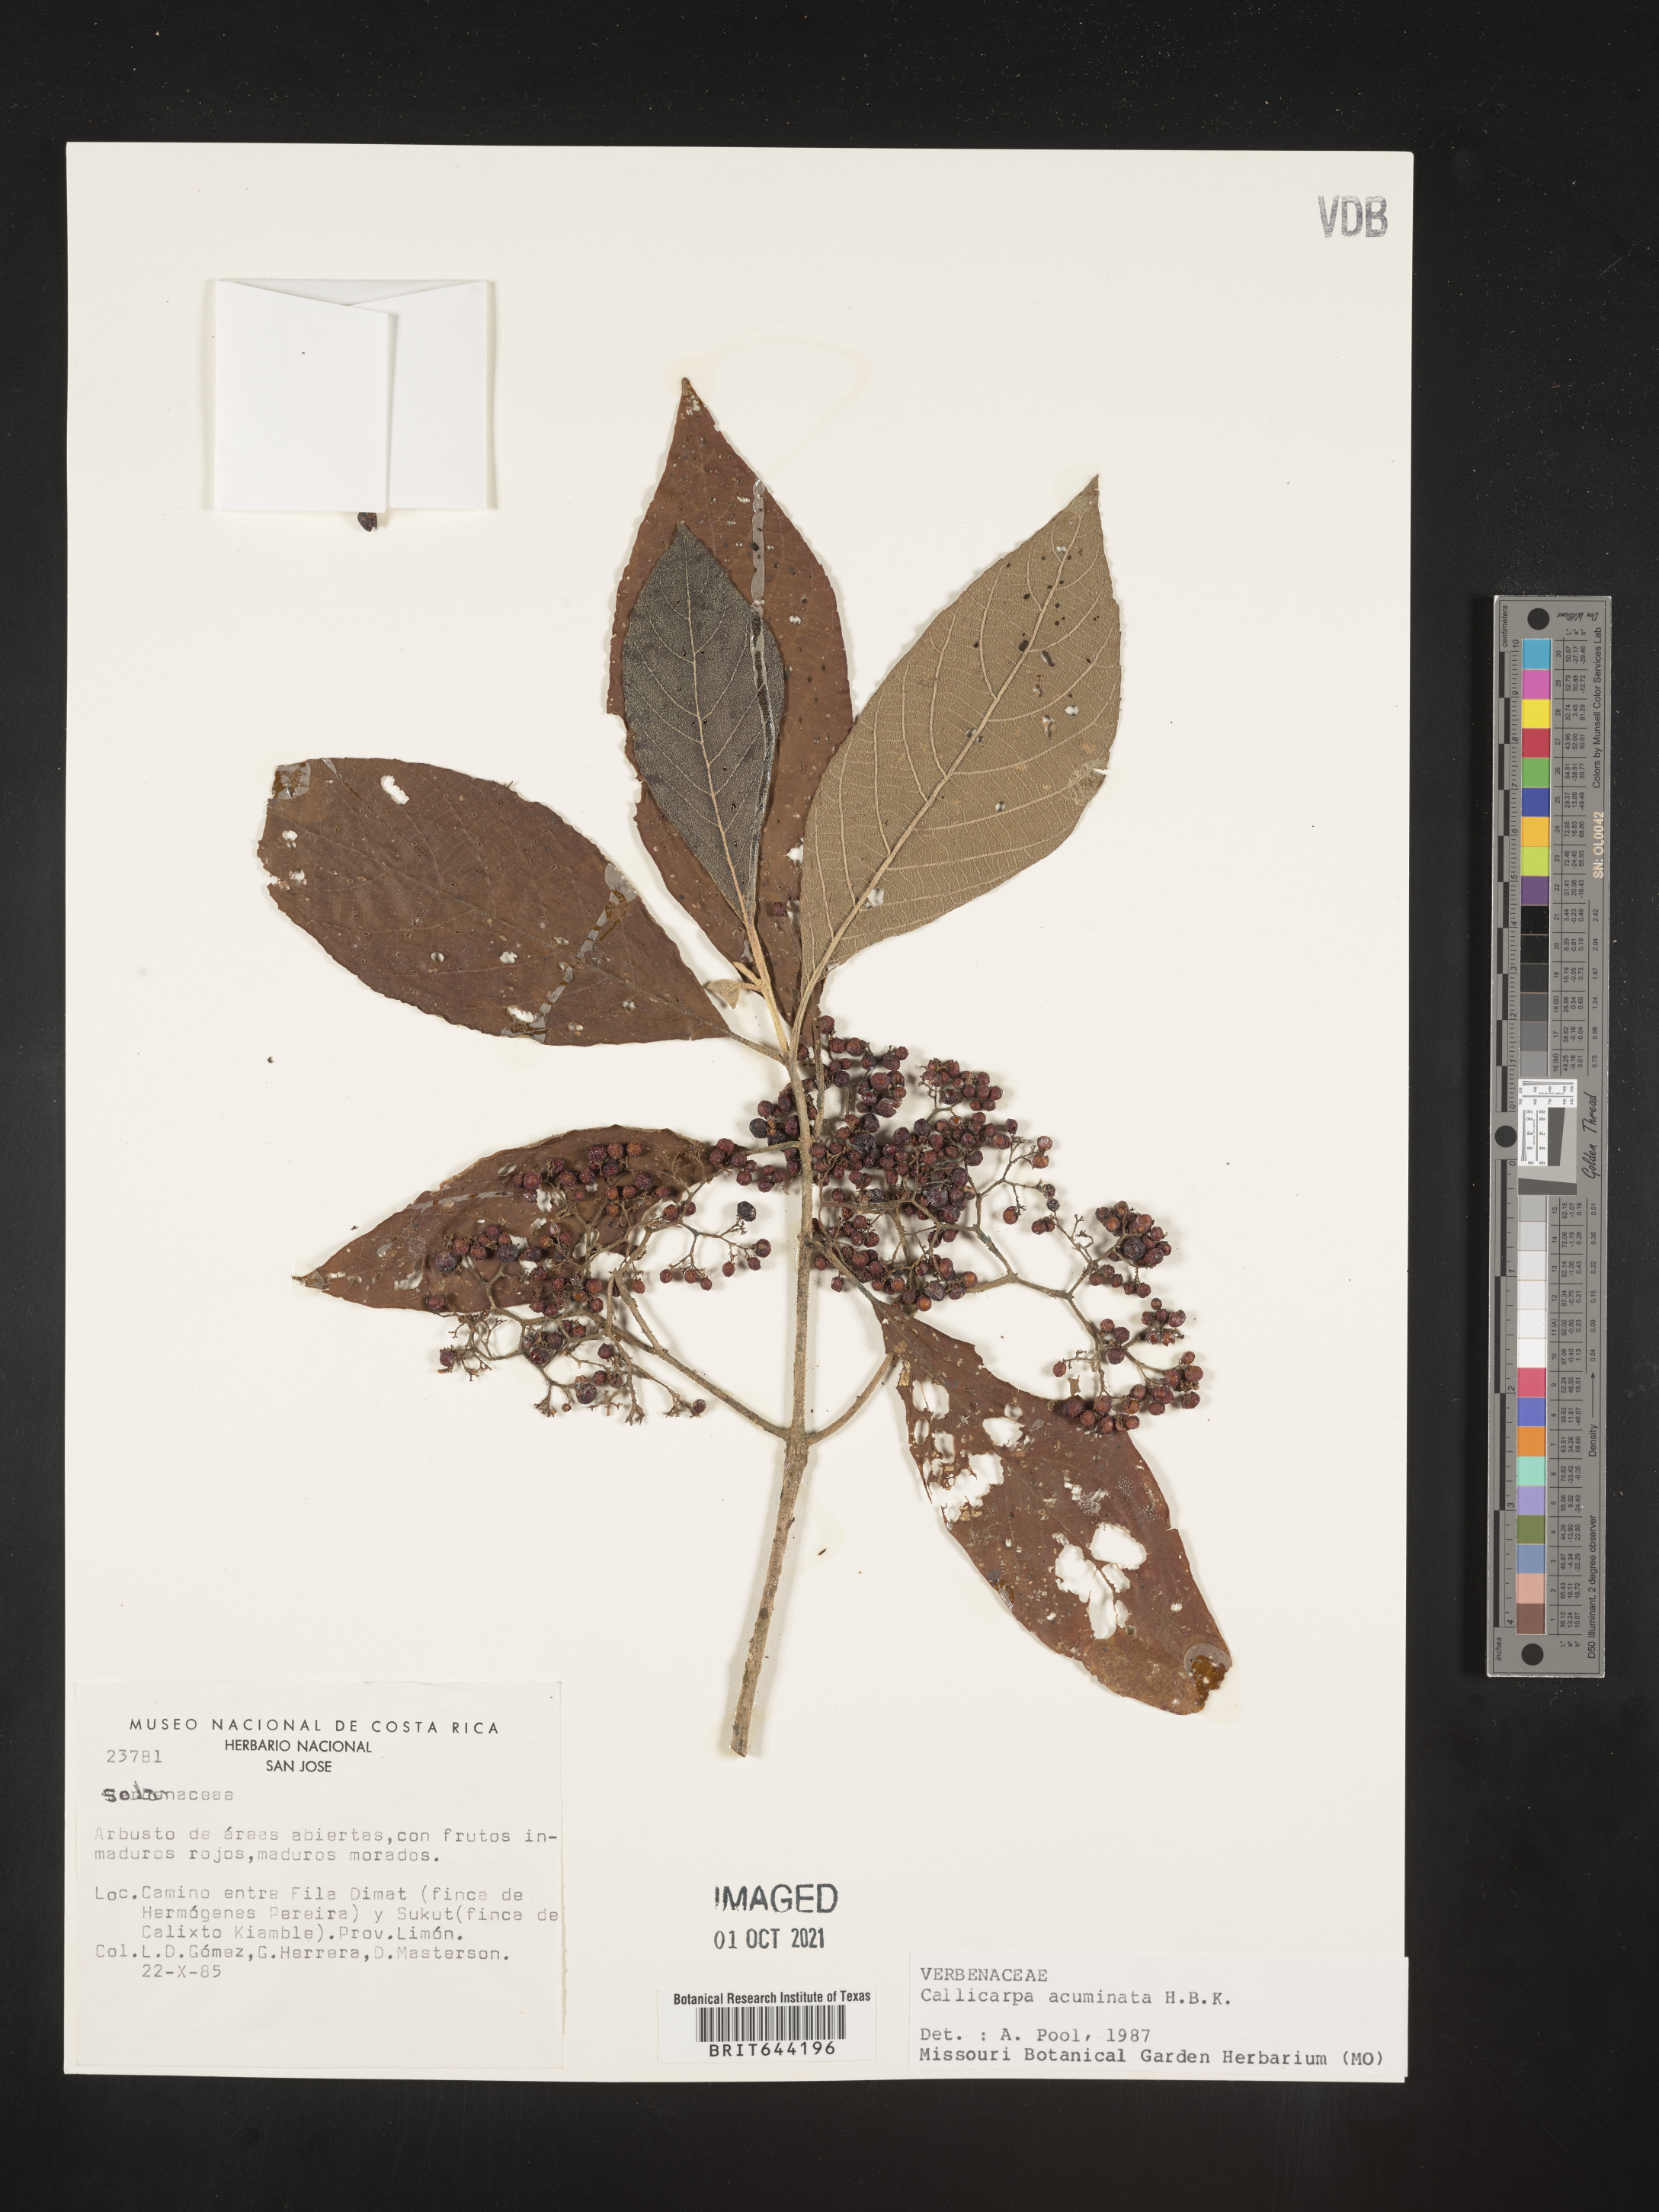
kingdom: Plantae
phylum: Tracheophyta
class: Magnoliopsida
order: Lamiales
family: Lamiaceae
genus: Callicarpa
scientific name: Callicarpa
